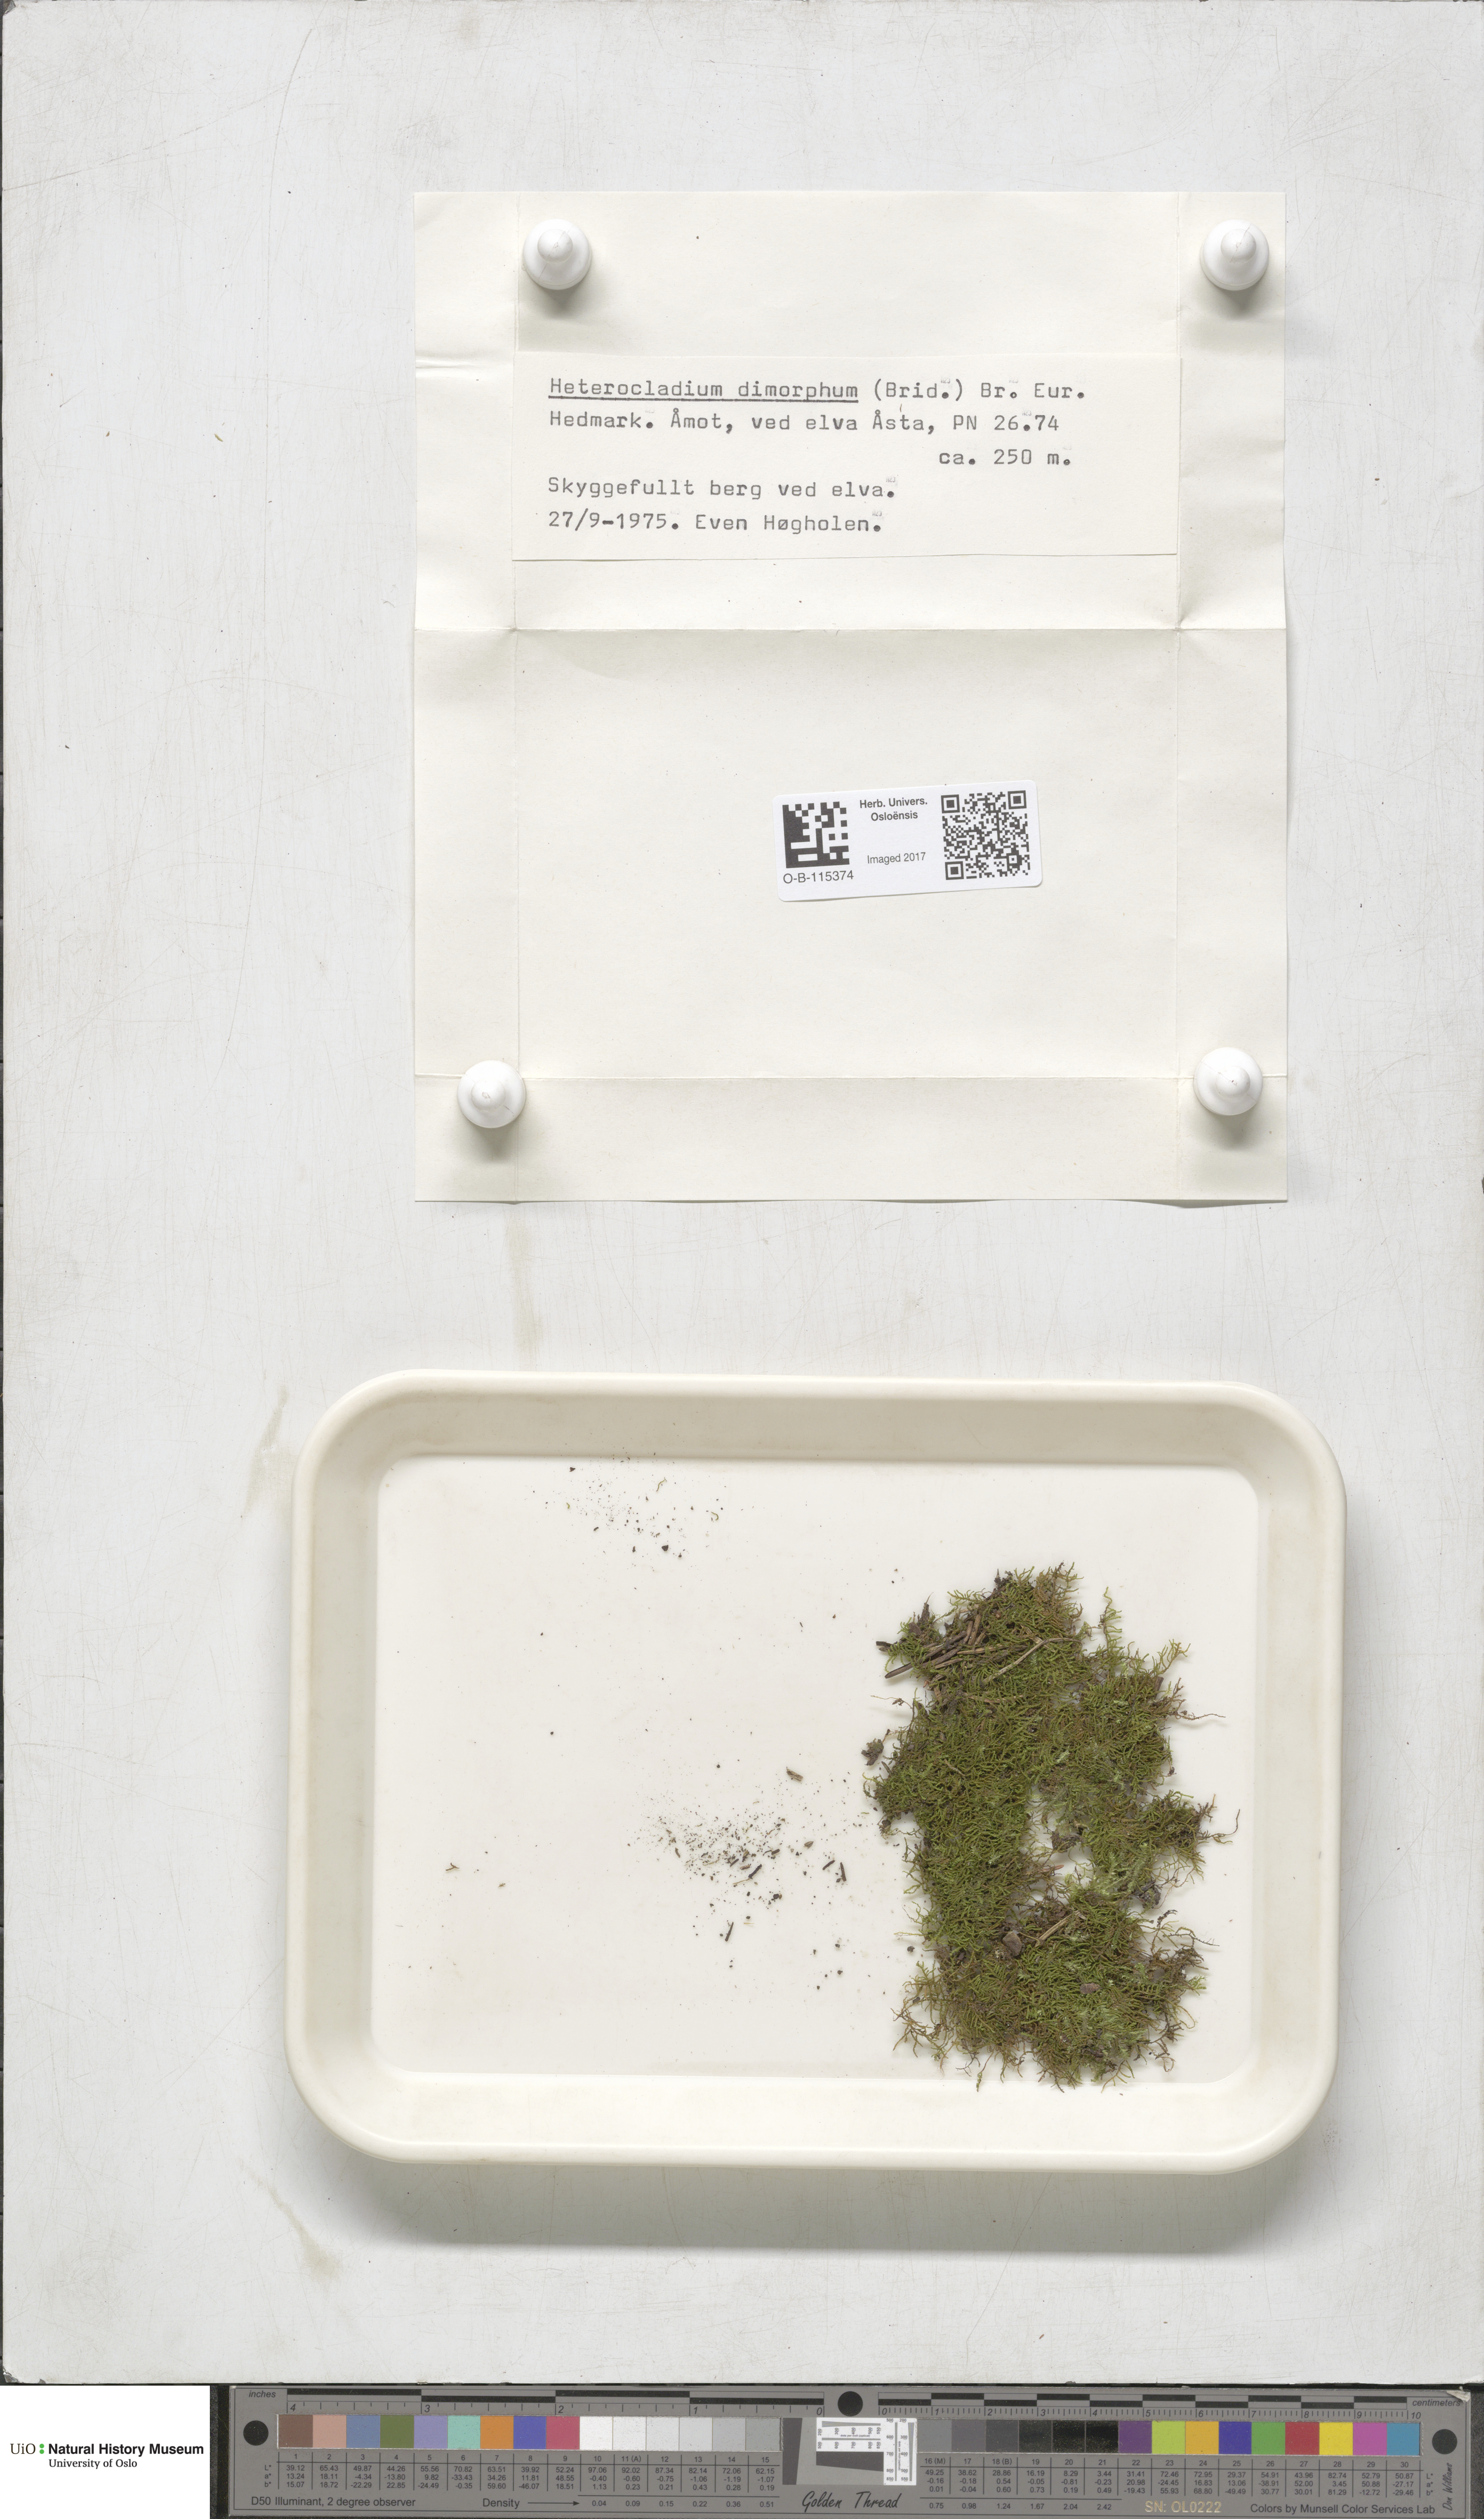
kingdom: Plantae
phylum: Bryophyta
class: Bryopsida
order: Hypnales
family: Heterocladiellaceae
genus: Heterocladiella
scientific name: Heterocladiella dimorpha
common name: Dimorphous tamarisk-moss
